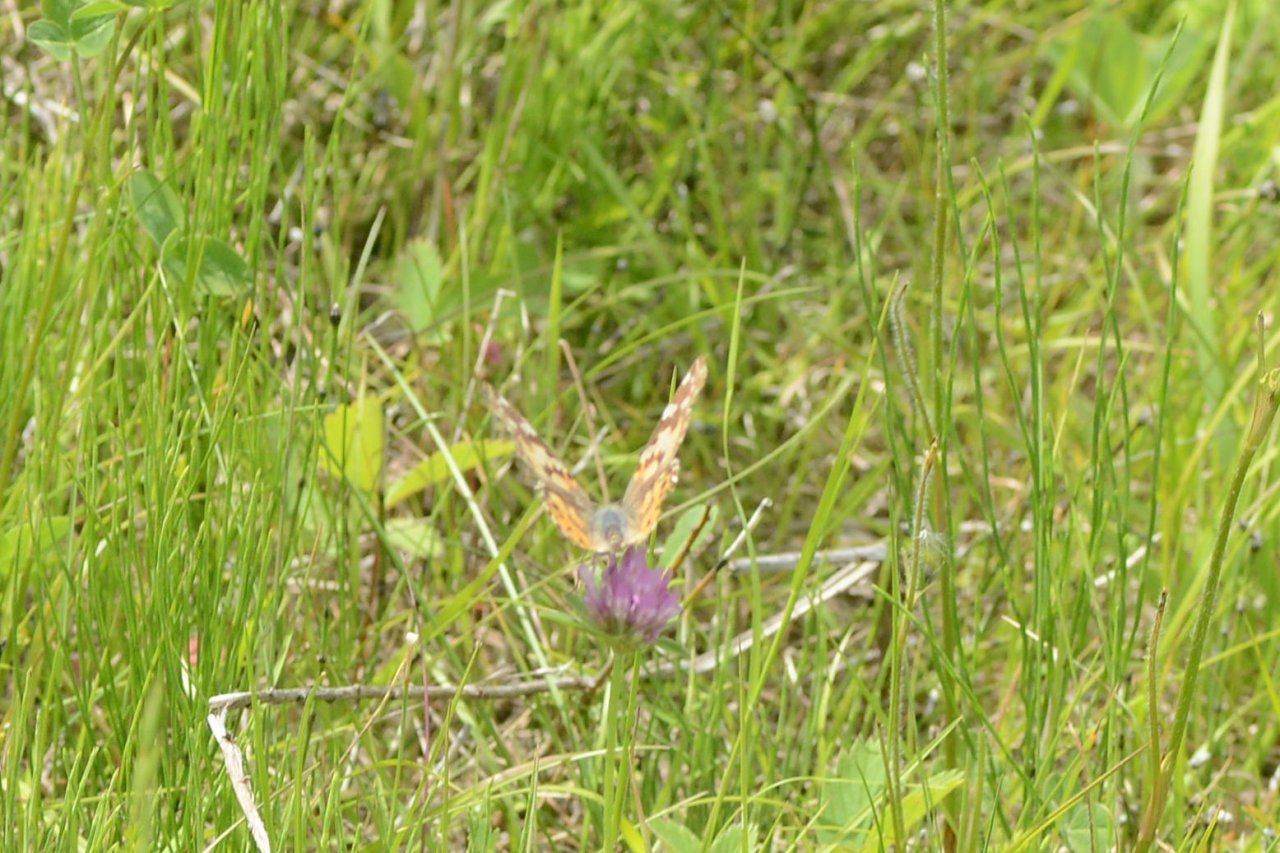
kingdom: Animalia
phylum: Arthropoda
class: Insecta
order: Lepidoptera
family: Nymphalidae
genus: Vanessa
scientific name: Vanessa cardui
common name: Painted Lady
